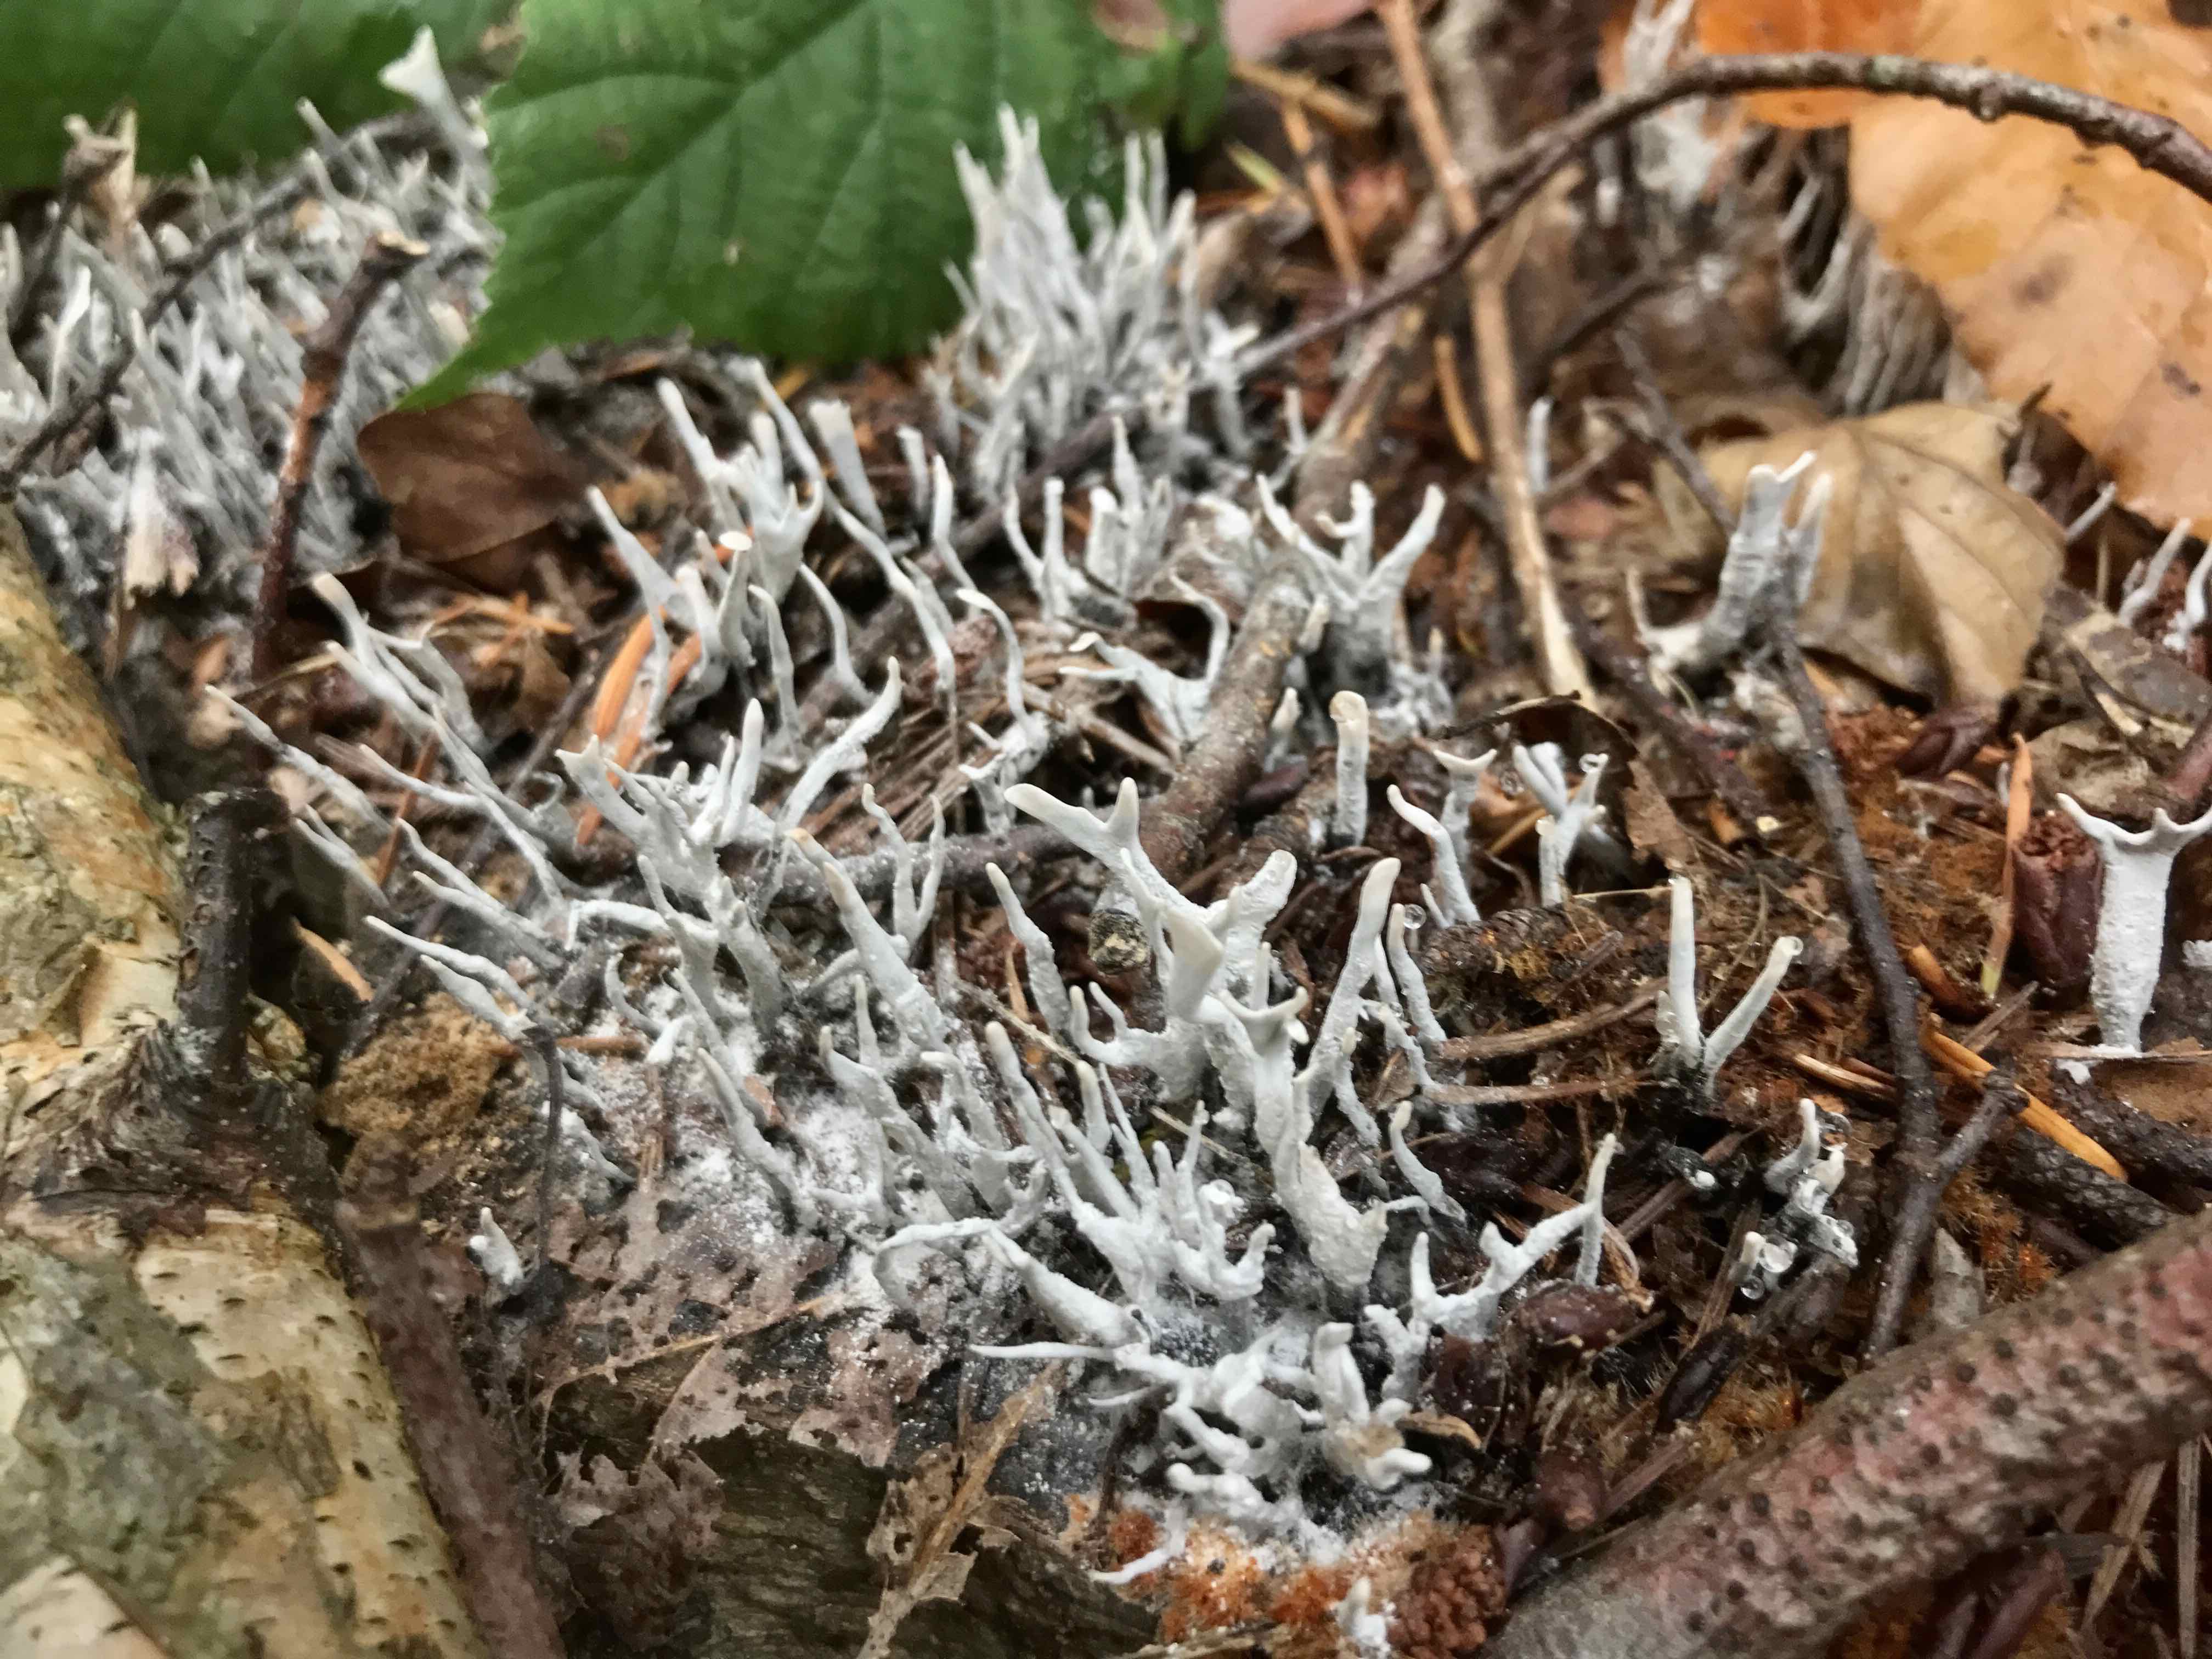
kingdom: Fungi
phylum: Ascomycota
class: Sordariomycetes
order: Xylariales
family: Xylariaceae
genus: Xylaria
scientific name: Xylaria hypoxylon
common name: grenet stødsvamp
